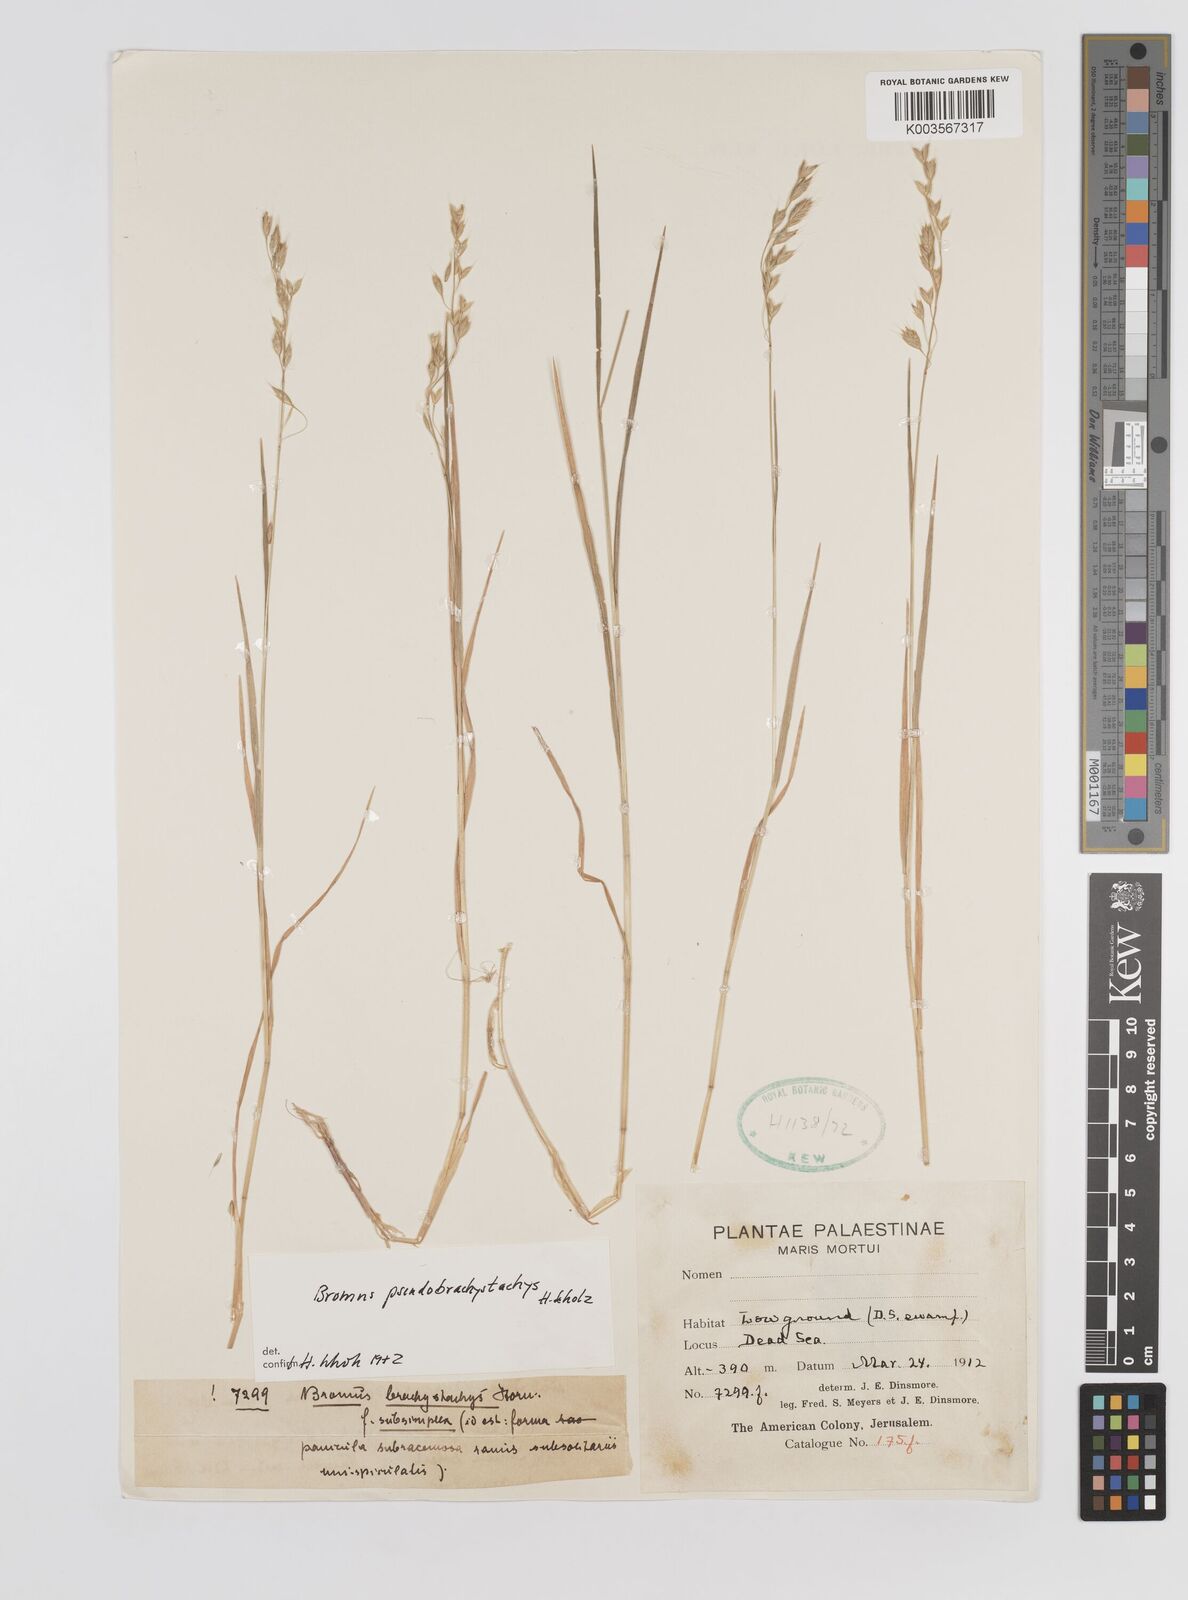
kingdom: Plantae
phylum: Tracheophyta
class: Liliopsida
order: Poales
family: Poaceae
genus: Bromus
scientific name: Bromus pseudobrachystachys
